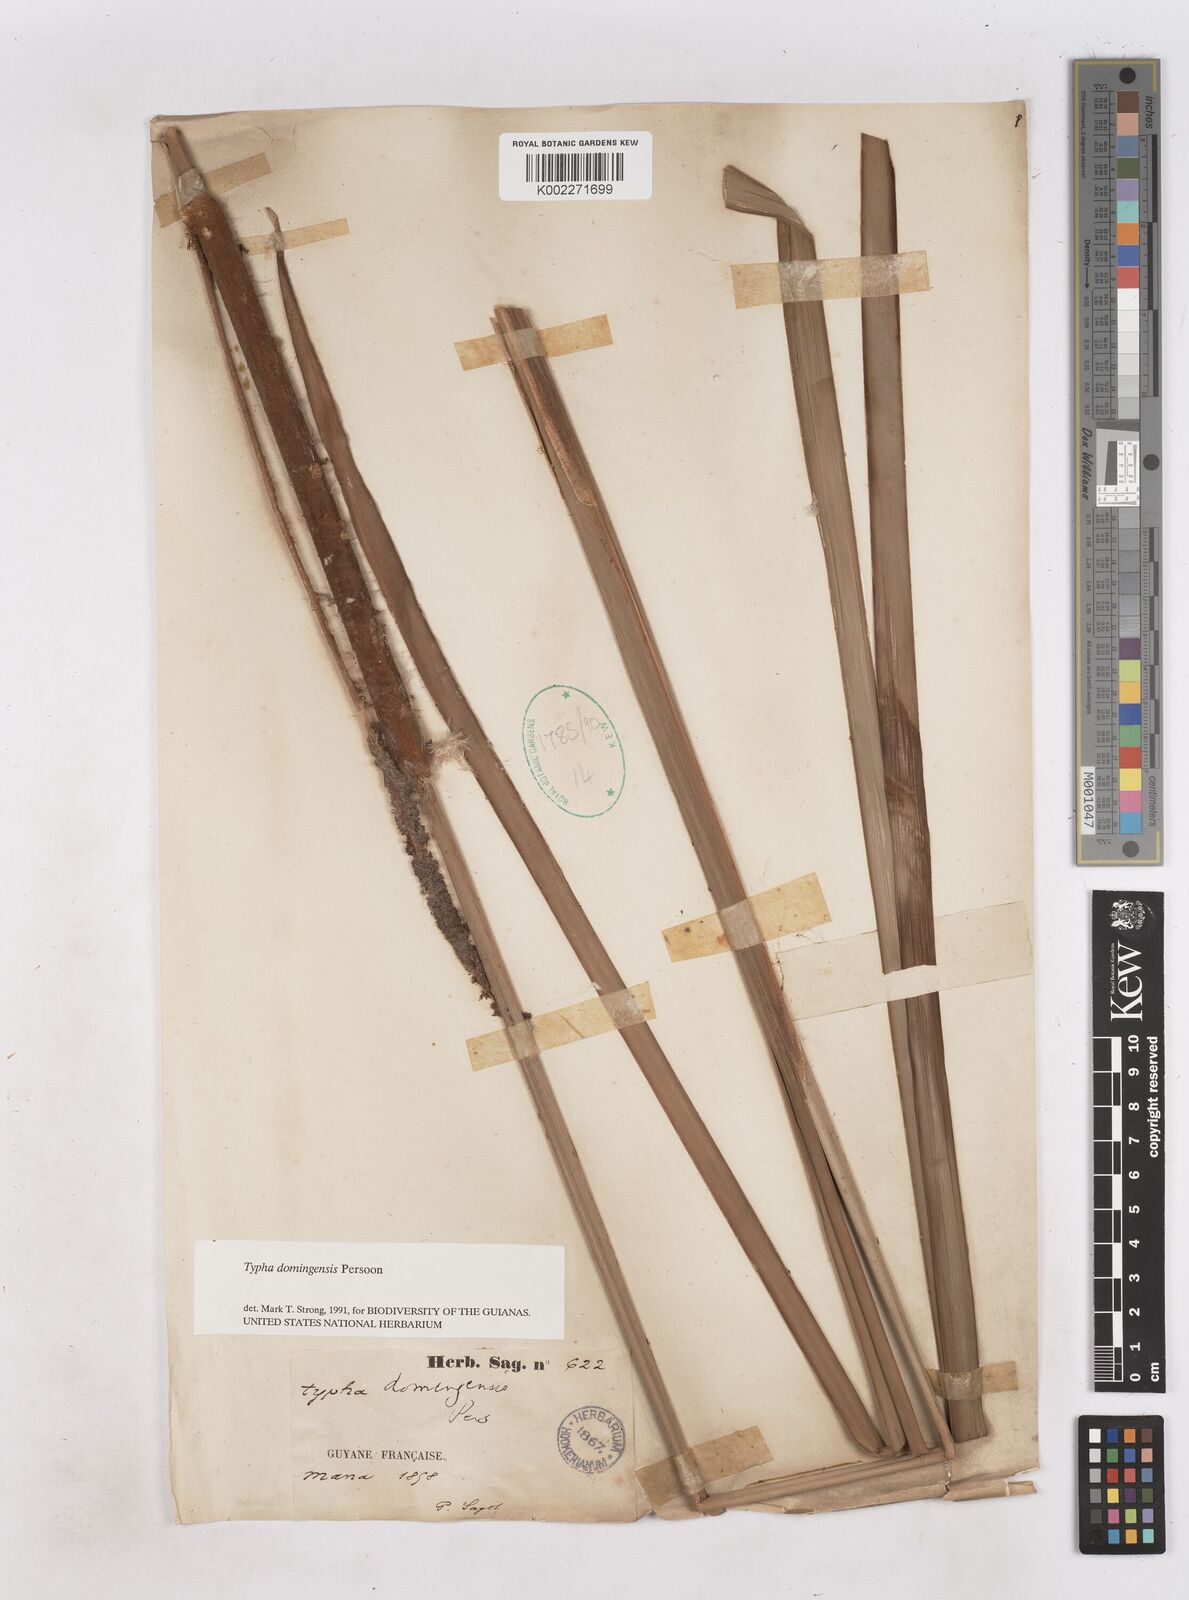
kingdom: Plantae
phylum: Tracheophyta
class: Liliopsida
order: Poales
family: Typhaceae
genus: Typha
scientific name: Typha domingensis
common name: Southern cattail
